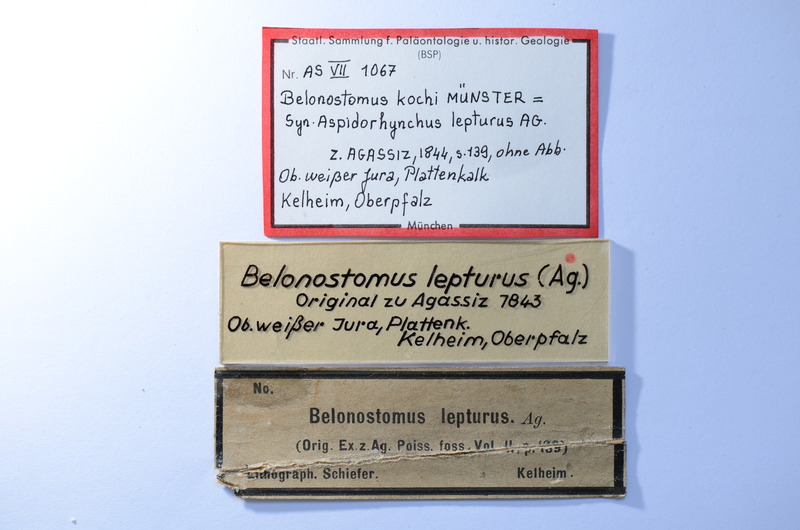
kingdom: Animalia
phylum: Chordata
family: Aspidorhynchidae
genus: Belonostomus
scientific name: Belonostomus kochii
